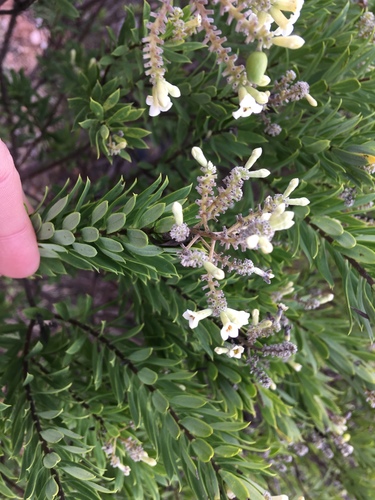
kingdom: Plantae
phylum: Tracheophyta
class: Magnoliopsida
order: Malvales
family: Thymelaeaceae
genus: Daphne
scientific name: Daphne gnidium
